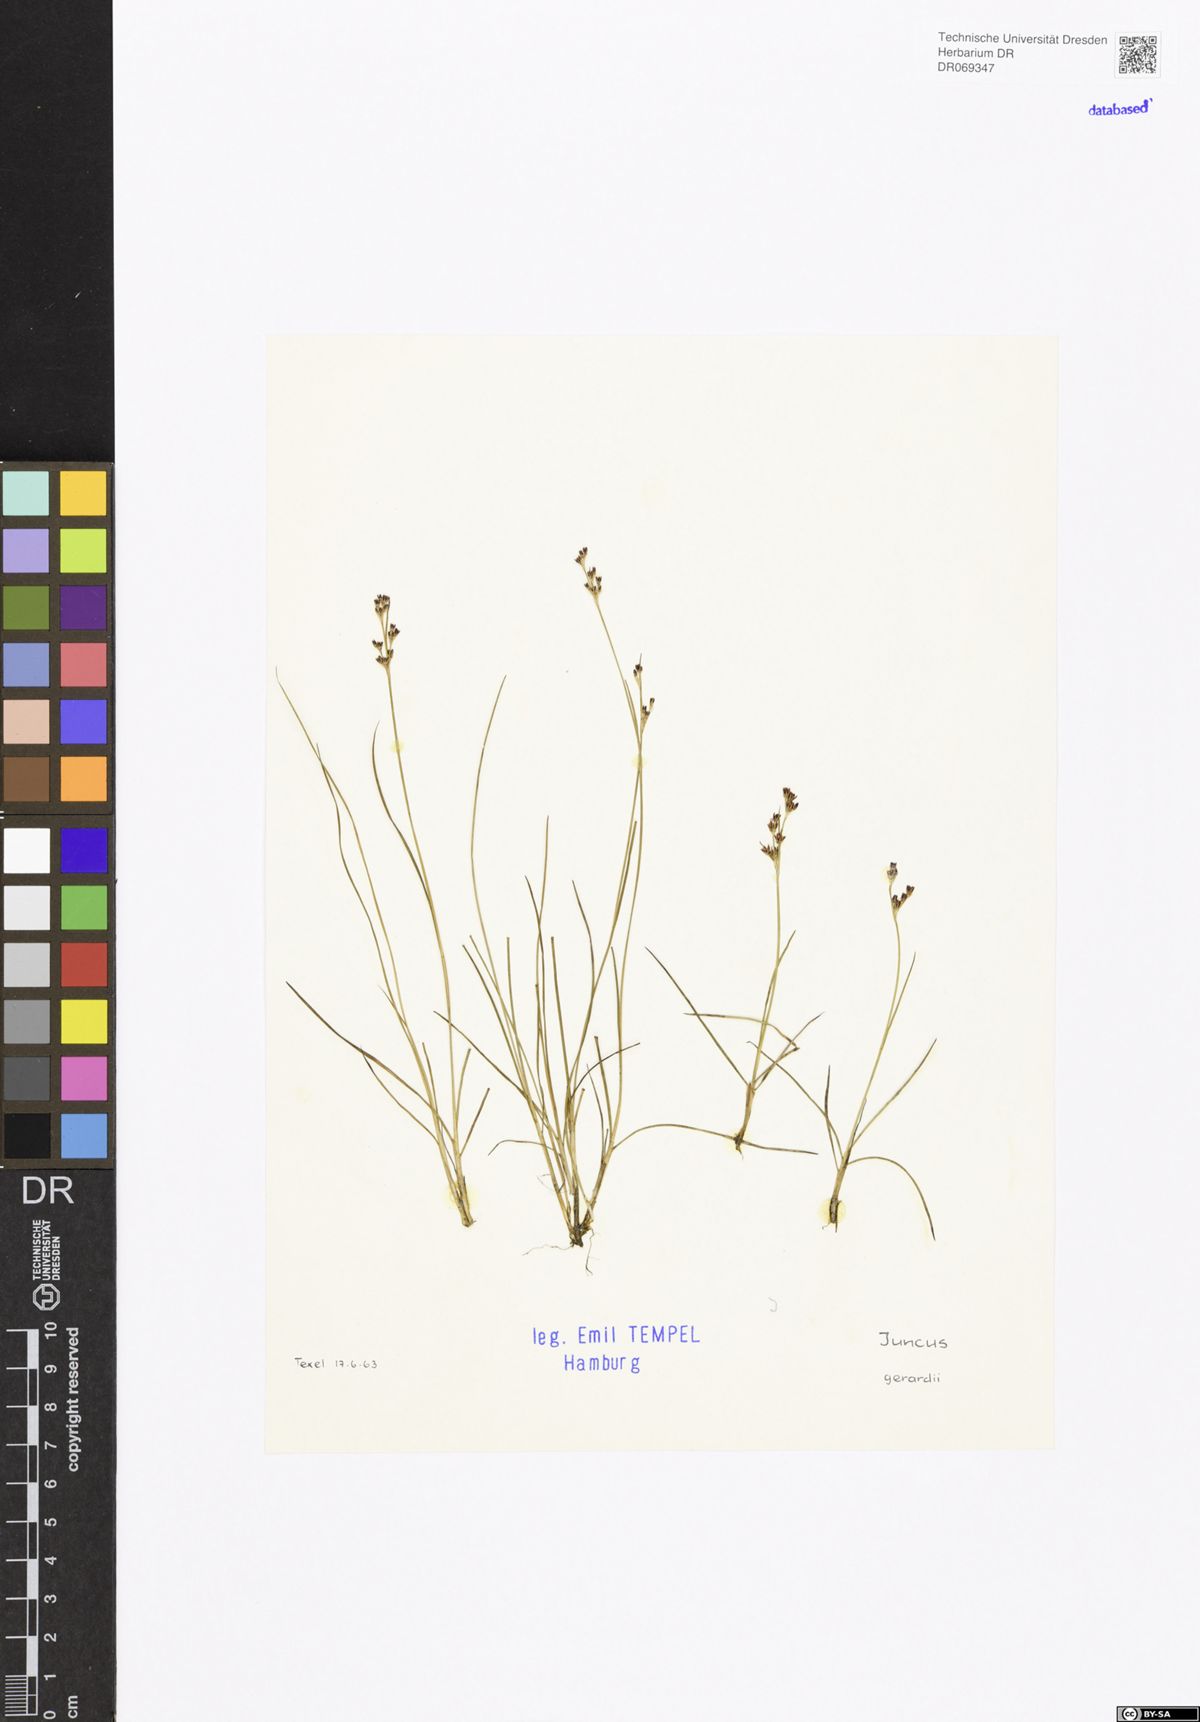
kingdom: Plantae
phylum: Tracheophyta
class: Liliopsida
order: Poales
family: Juncaceae
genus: Juncus
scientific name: Juncus gerardi
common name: Saltmarsh rush
